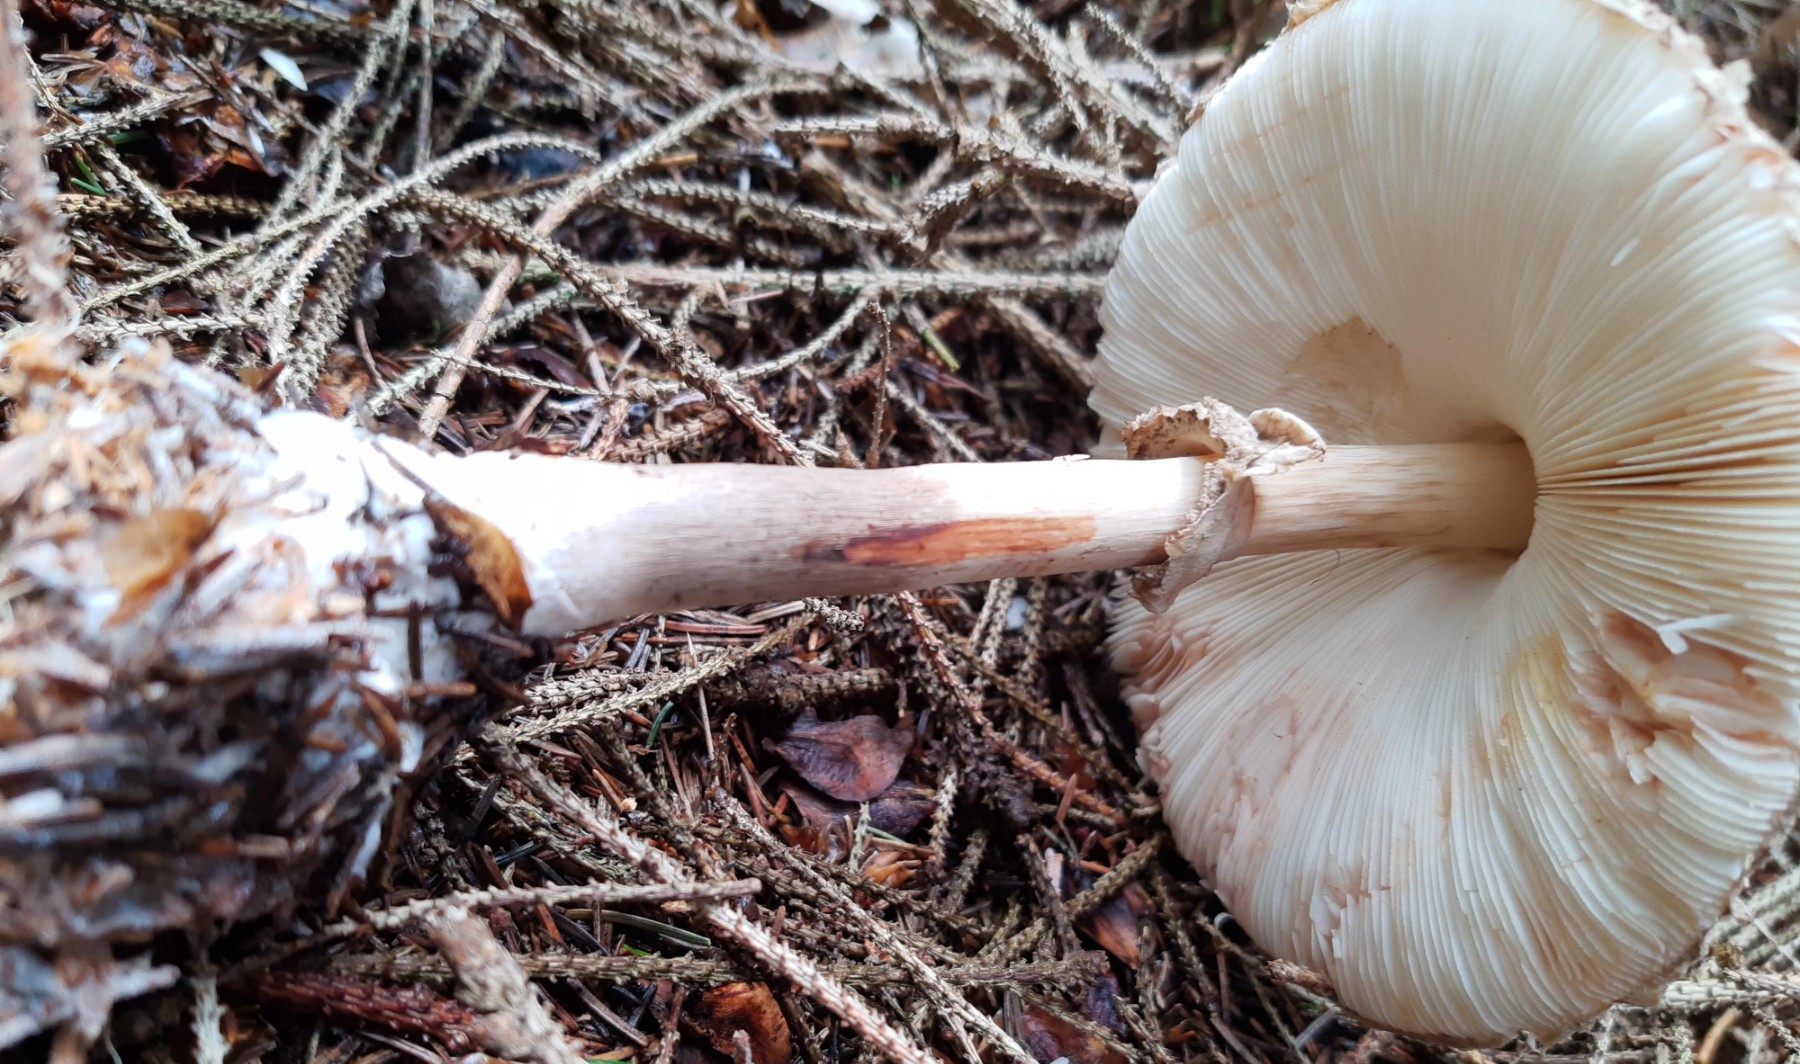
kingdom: Fungi
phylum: Basidiomycota
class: Agaricomycetes
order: Agaricales
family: Agaricaceae
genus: Chlorophyllum
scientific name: Chlorophyllum olivieri
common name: almindelig rabarberhat
